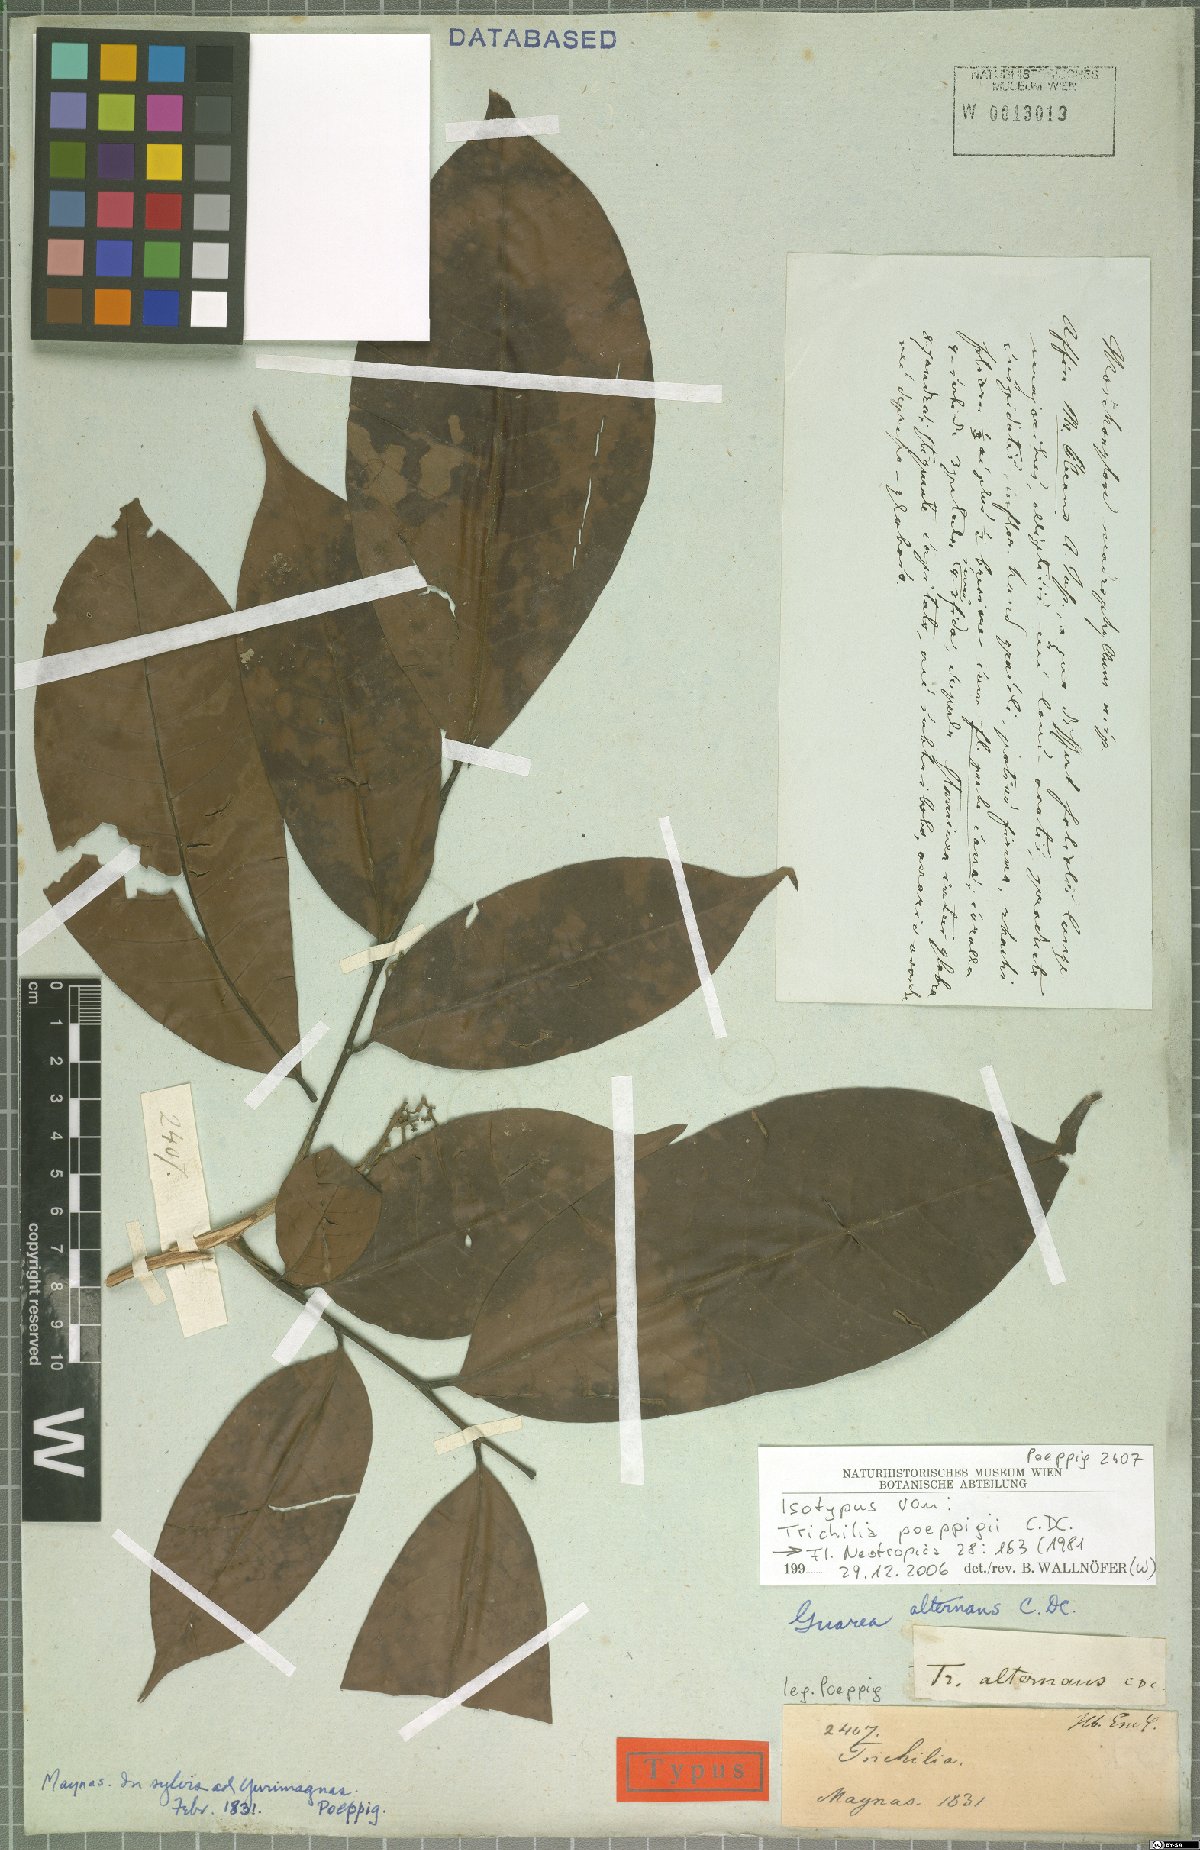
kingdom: Plantae
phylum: Tracheophyta
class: Magnoliopsida
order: Sapindales
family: Meliaceae
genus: Trichilia
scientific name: Trichilia poeppigii
